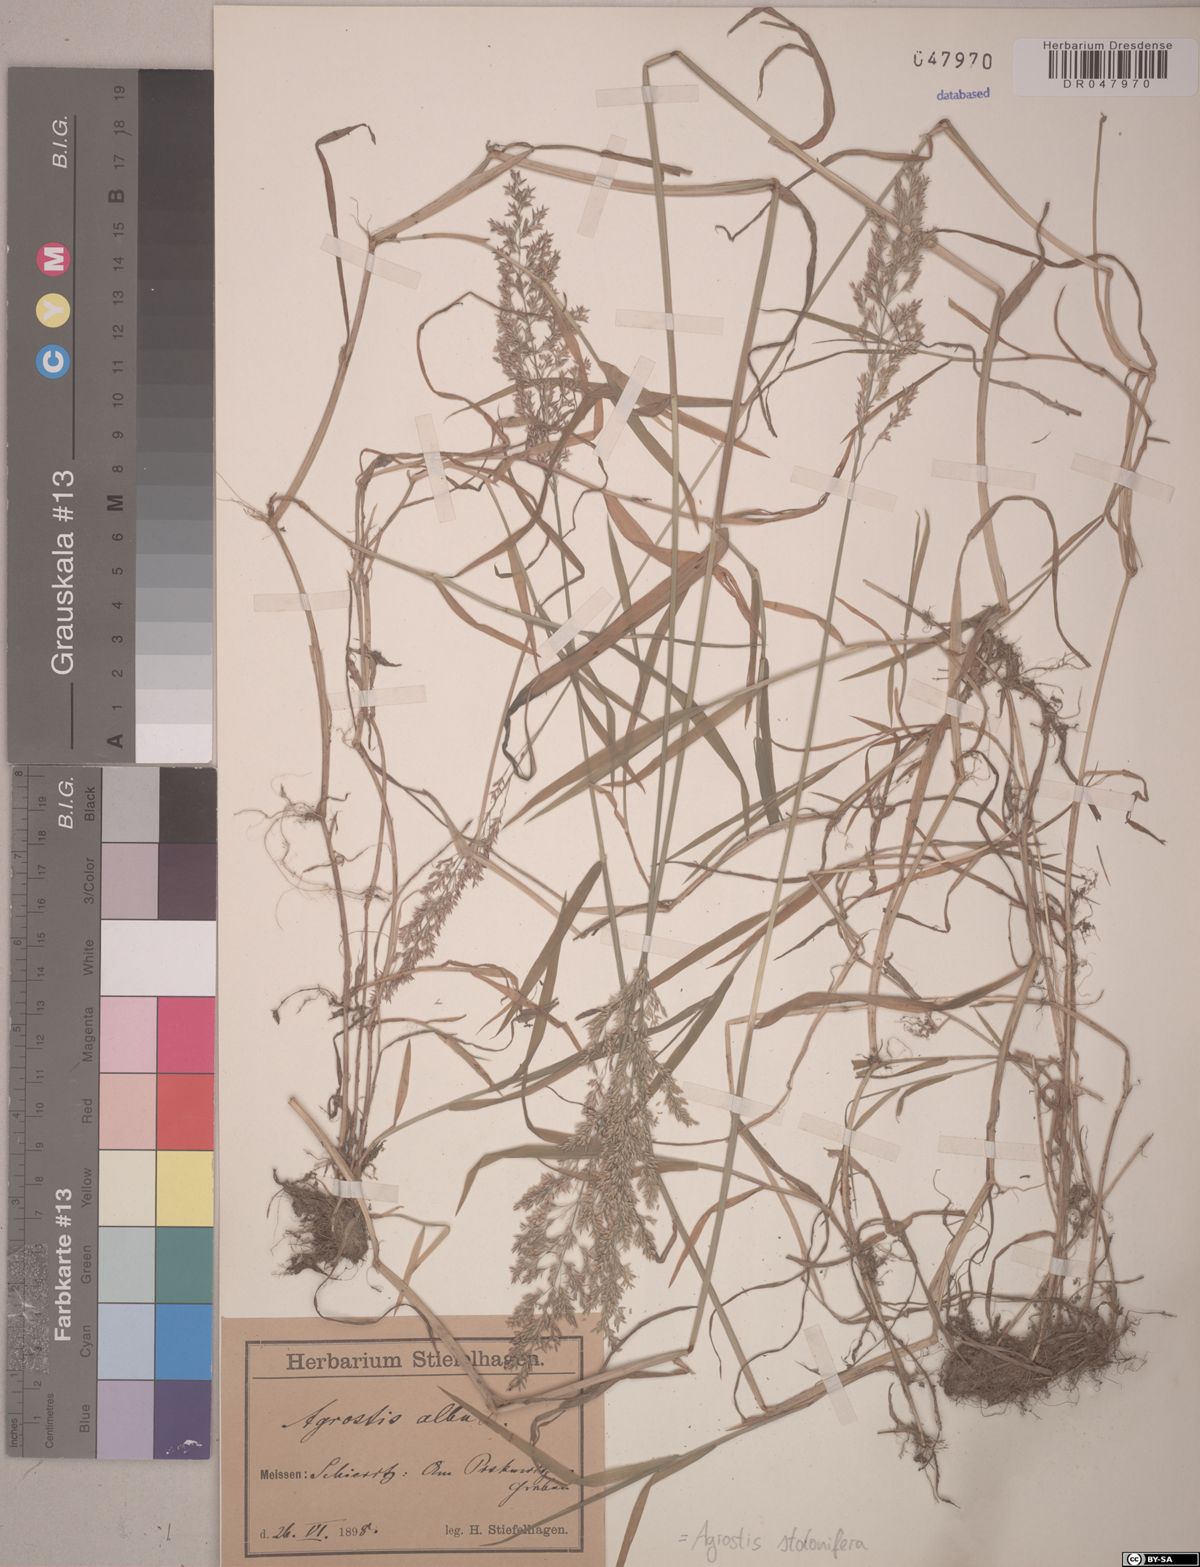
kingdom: Plantae
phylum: Tracheophyta
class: Liliopsida
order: Poales
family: Poaceae
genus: Agrostis
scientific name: Agrostis stolonifera
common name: Creeping bentgrass
